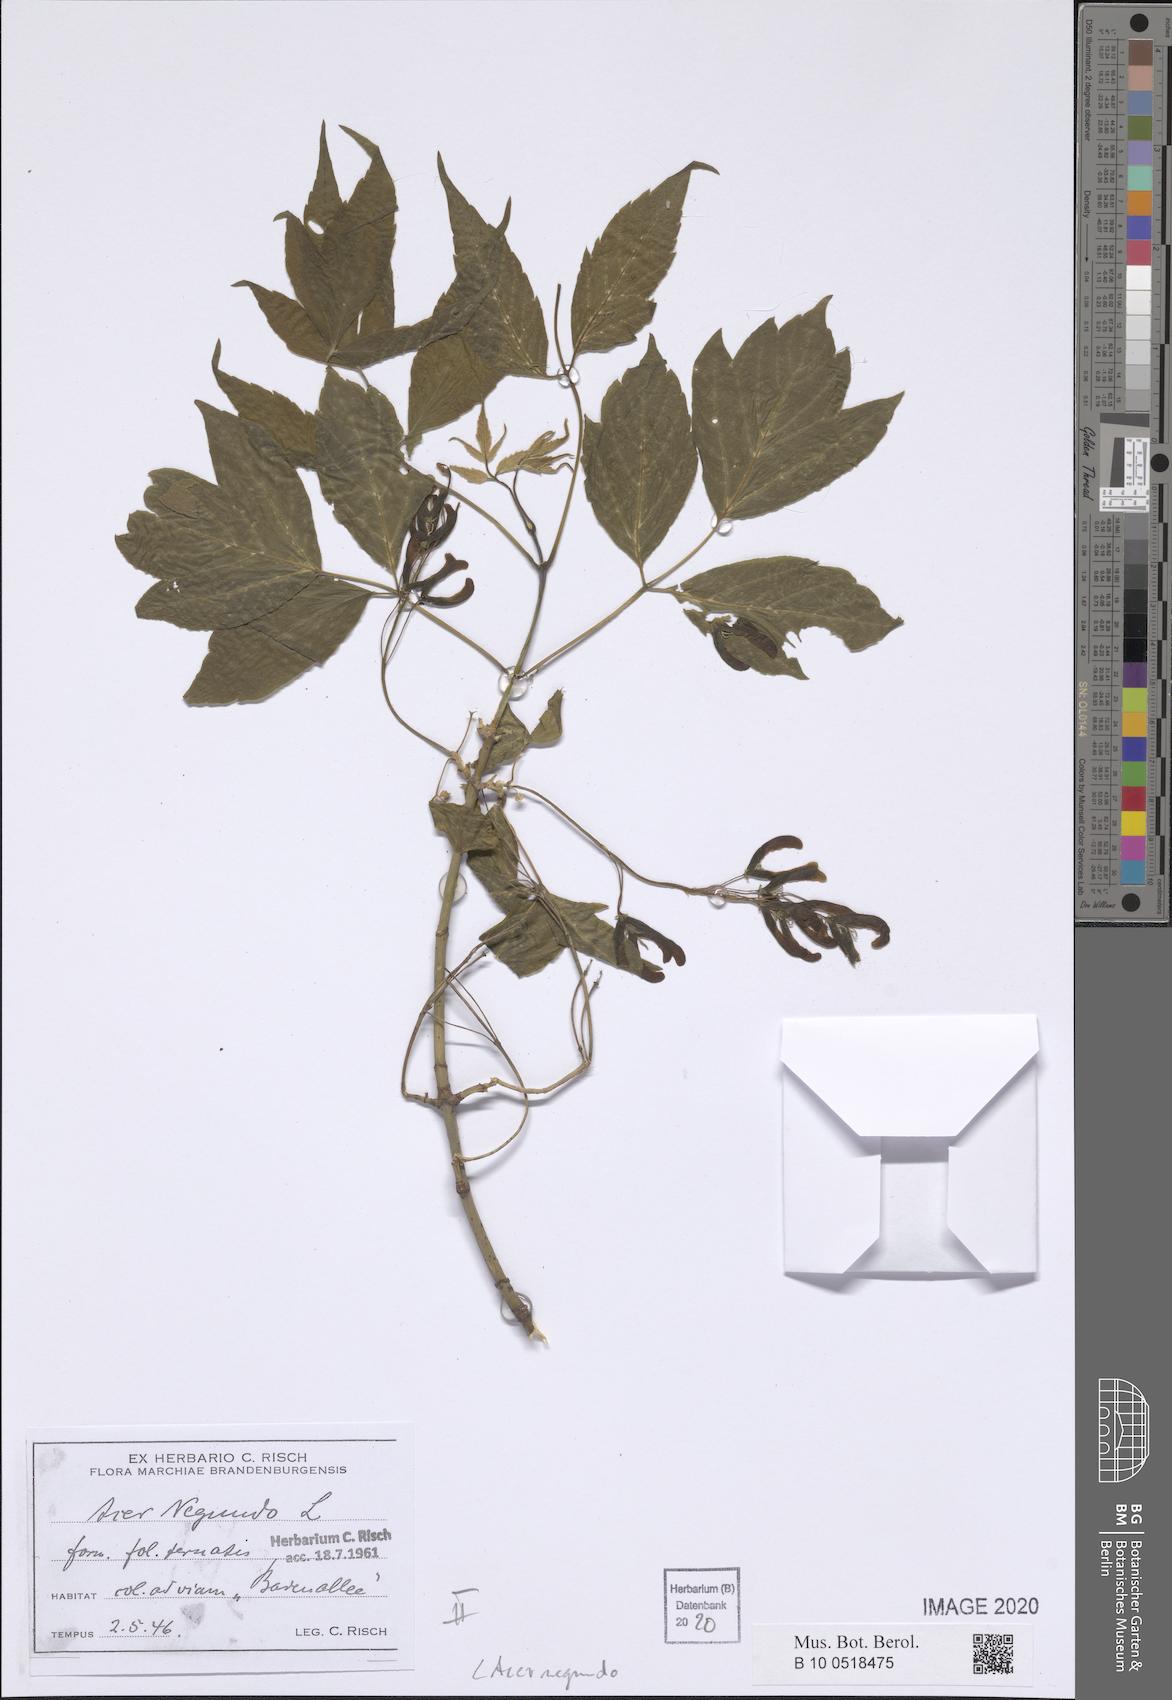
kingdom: Plantae
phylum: Tracheophyta
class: Magnoliopsida
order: Sapindales
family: Sapindaceae
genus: Acer
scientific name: Acer negundo
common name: Ashleaf maple
